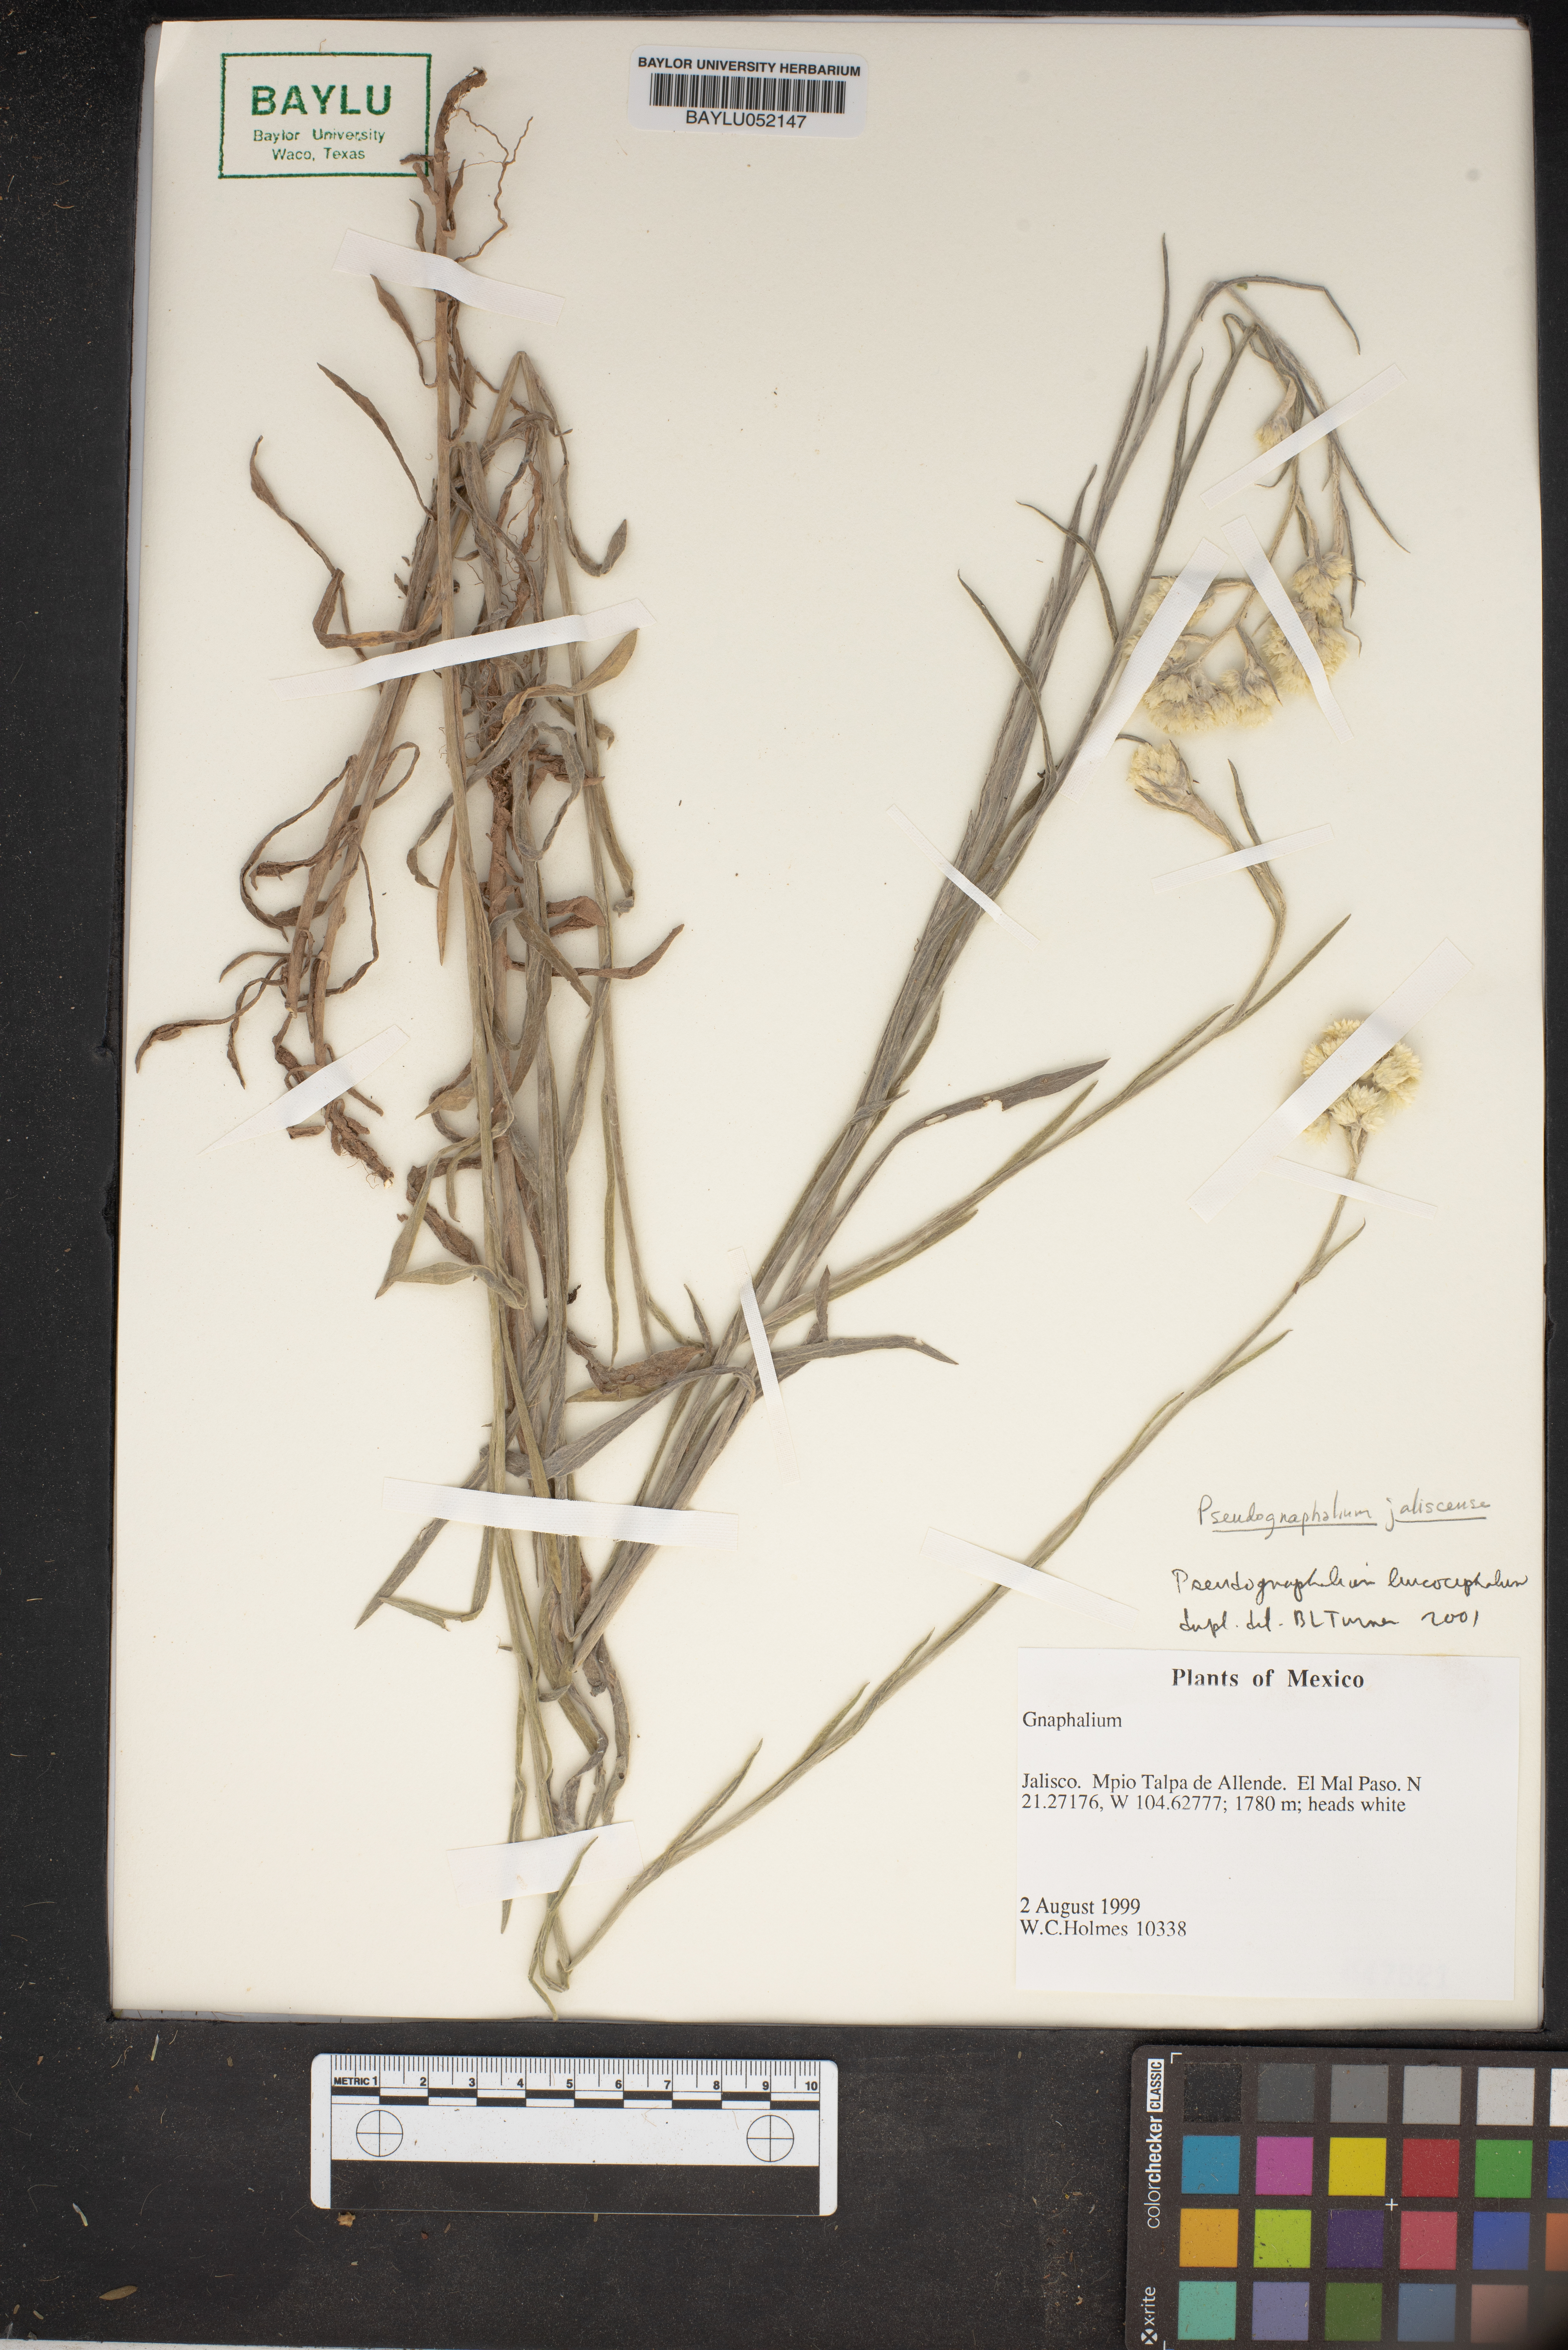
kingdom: Plantae
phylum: Tracheophyta
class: Magnoliopsida
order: Asterales
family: Asteraceae
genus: Gnaphalium
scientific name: Gnaphalium
